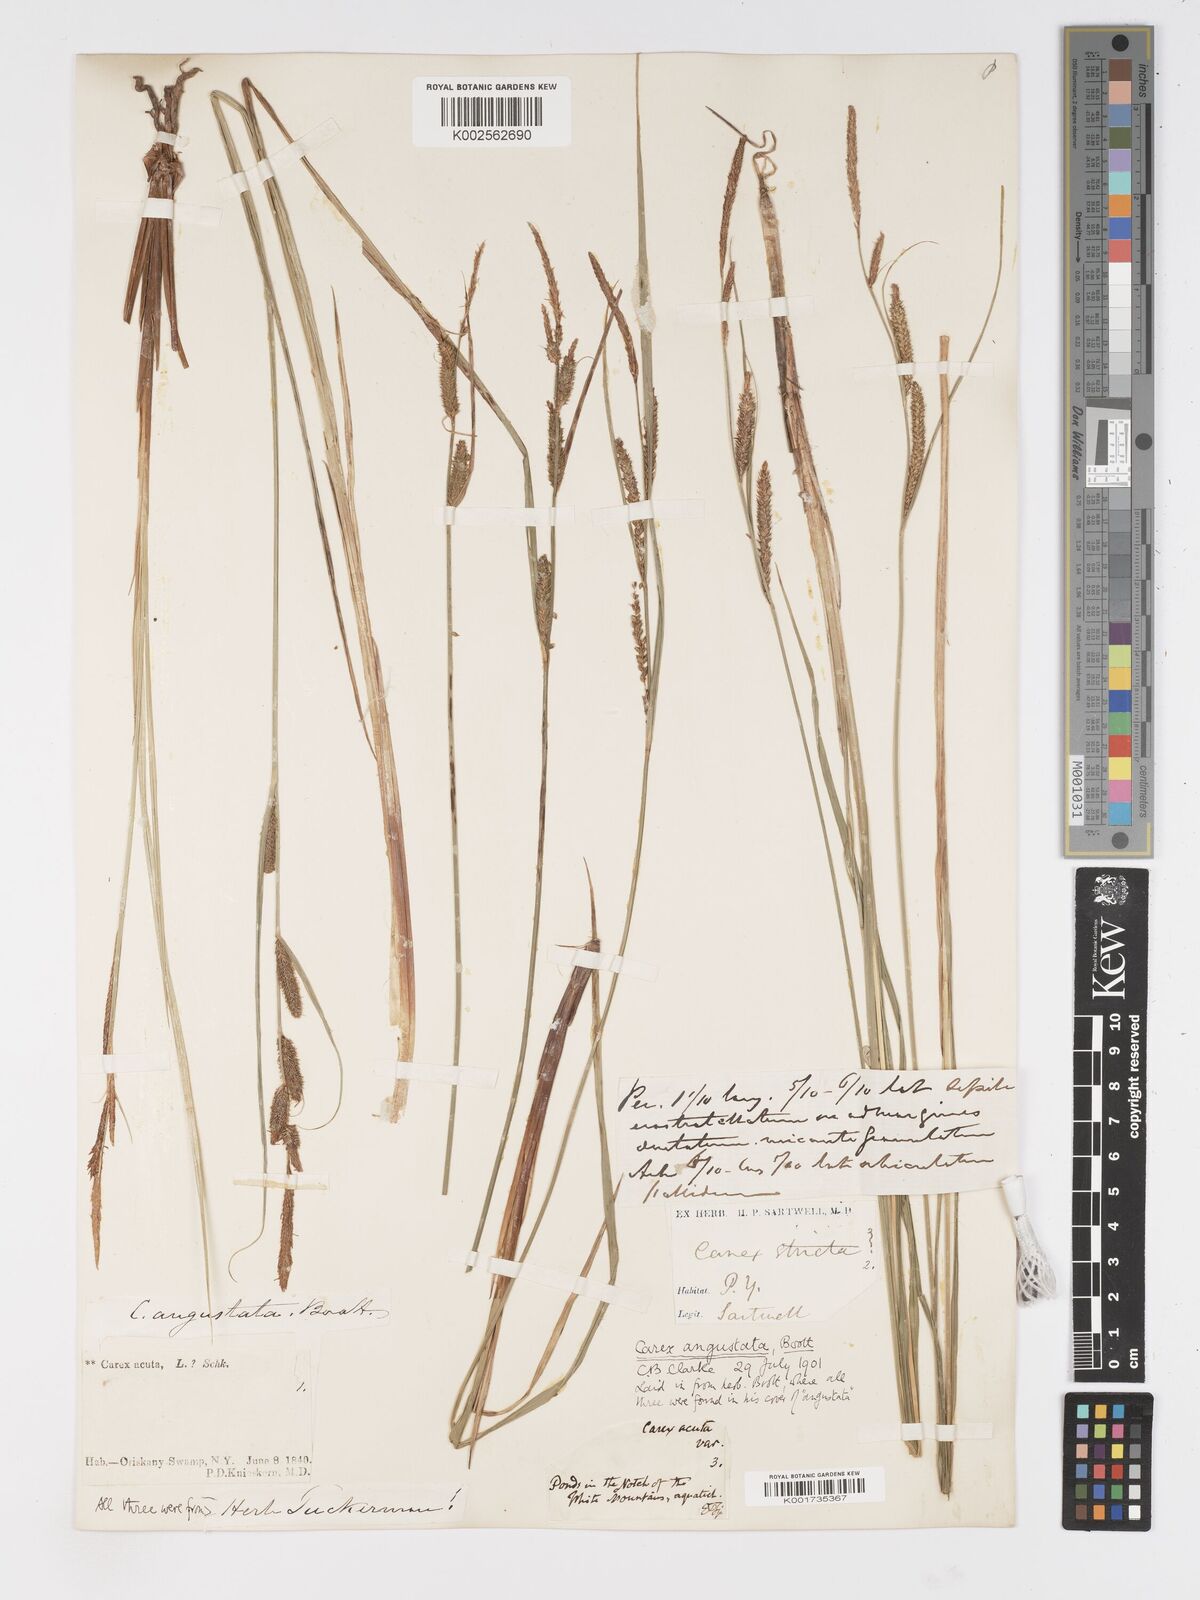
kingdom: Plantae
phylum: Tracheophyta
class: Liliopsida
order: Poales
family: Cyperaceae
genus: Carex
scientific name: Carex stricta
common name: Hummock sedge
